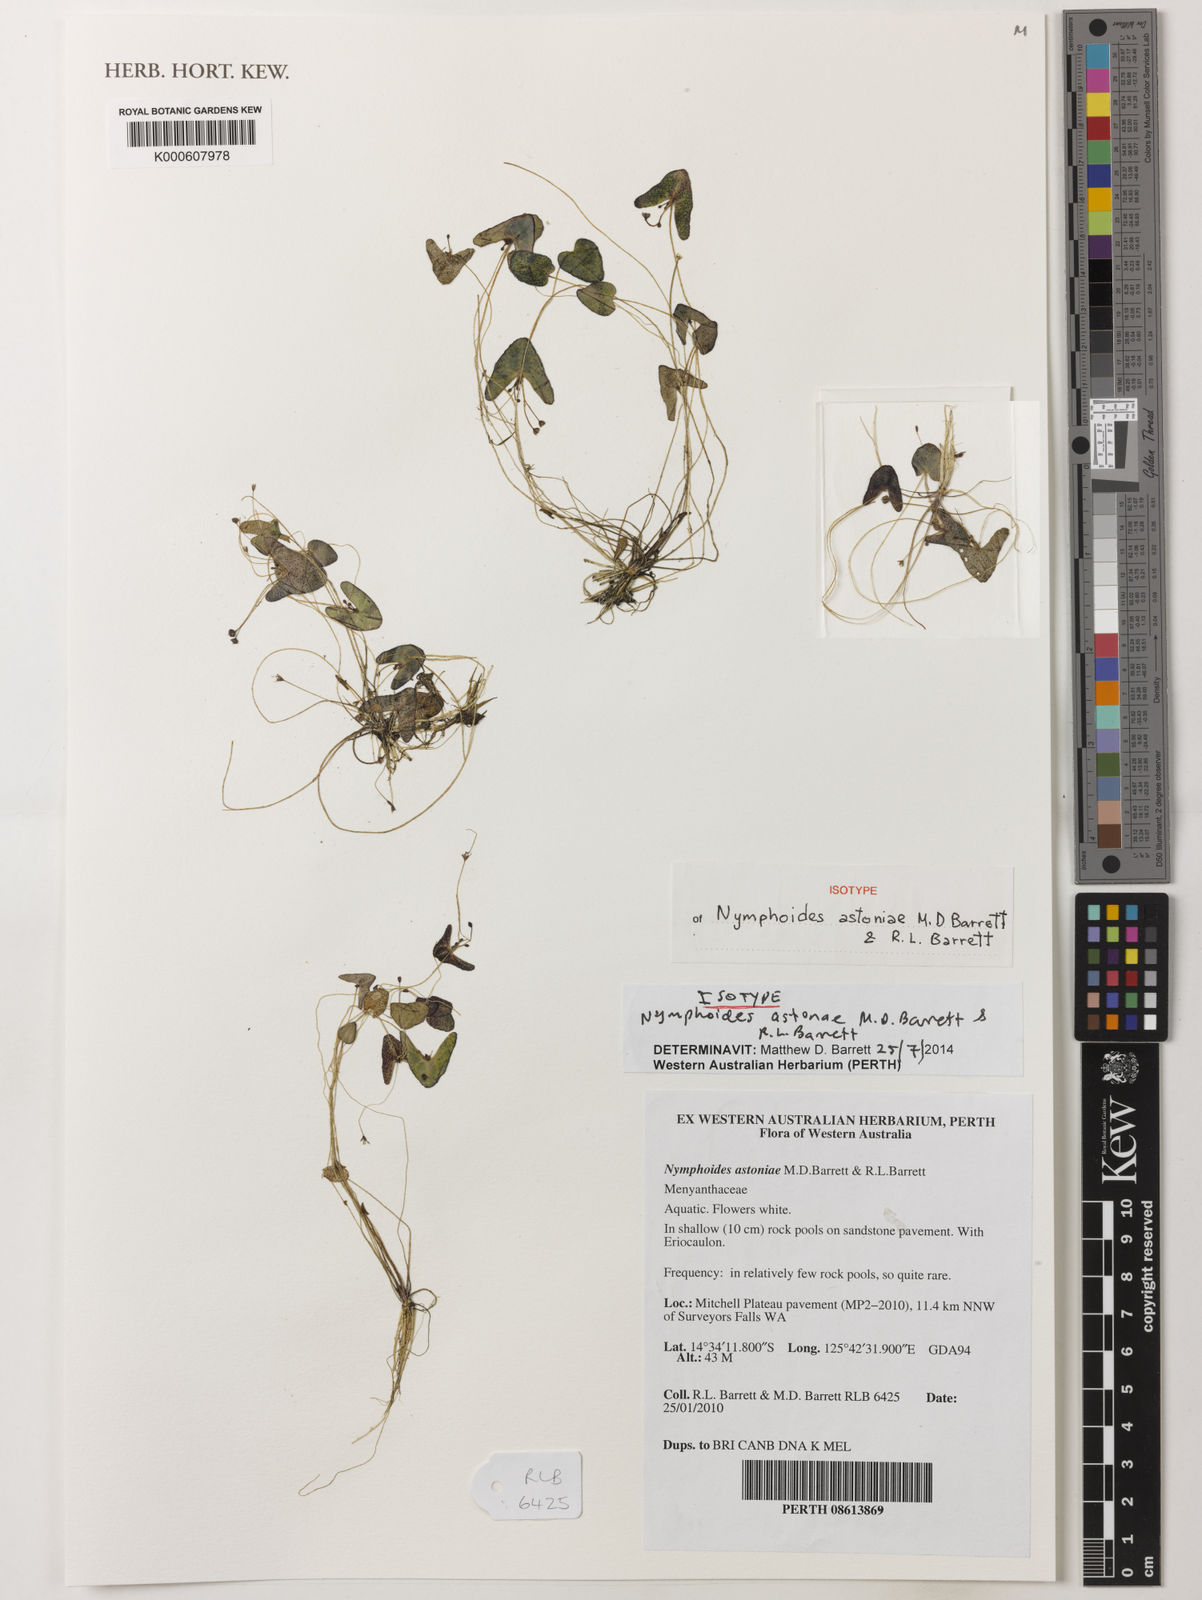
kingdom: Plantae
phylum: Tracheophyta
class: Magnoliopsida
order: Asterales
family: Menyanthaceae
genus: Nymphoides
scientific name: Nymphoides astoniae
